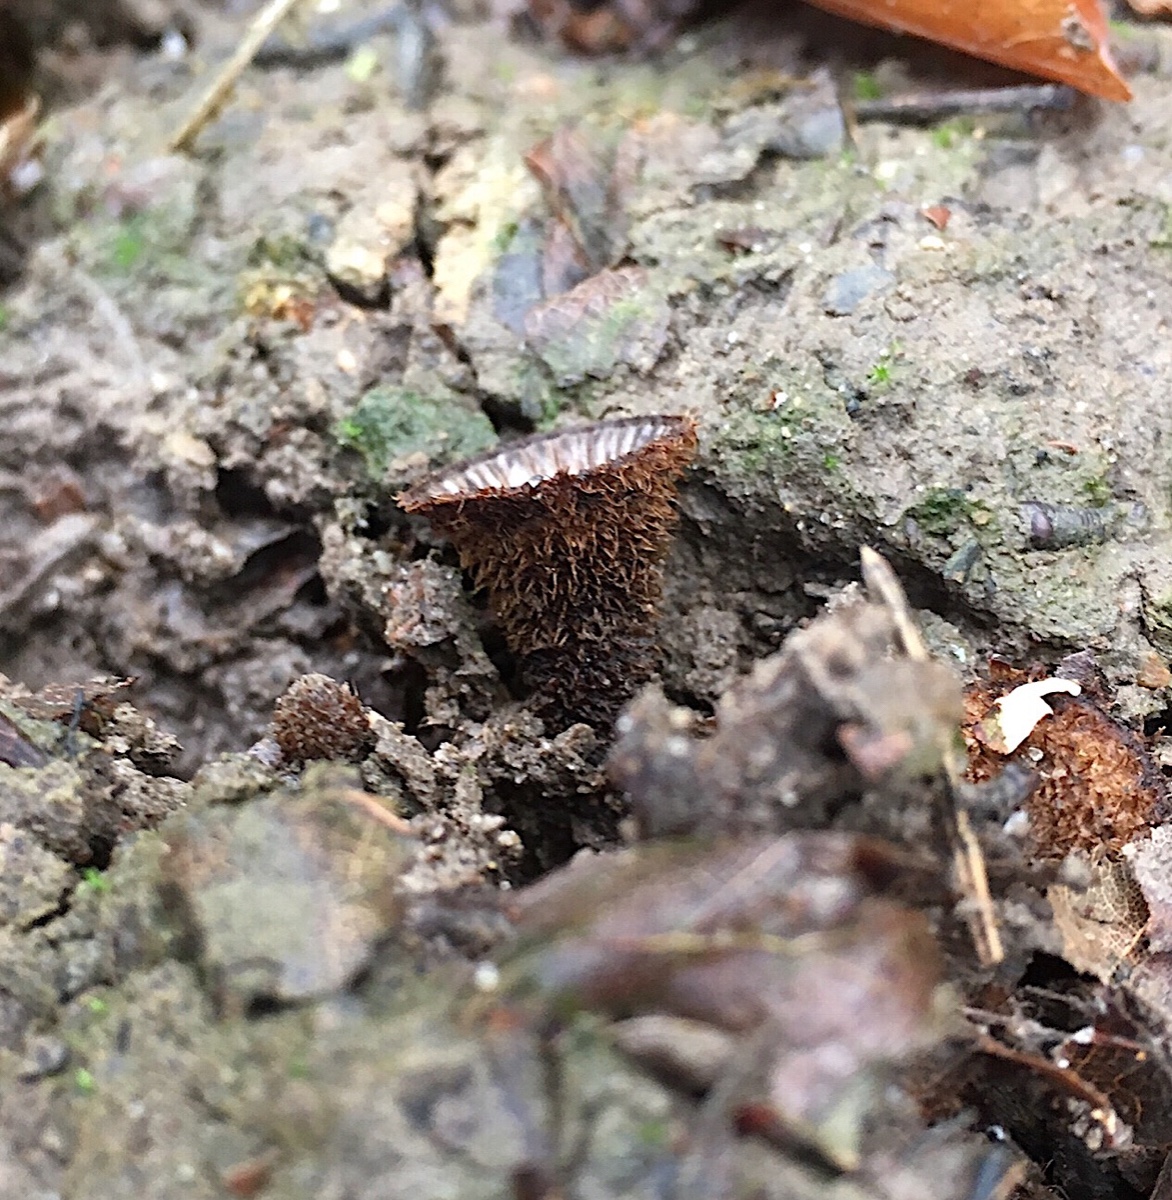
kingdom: Fungi
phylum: Basidiomycota
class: Agaricomycetes
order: Agaricales
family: Agaricaceae
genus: Cyathus
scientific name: Cyathus striatus
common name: stribet redesvamp
